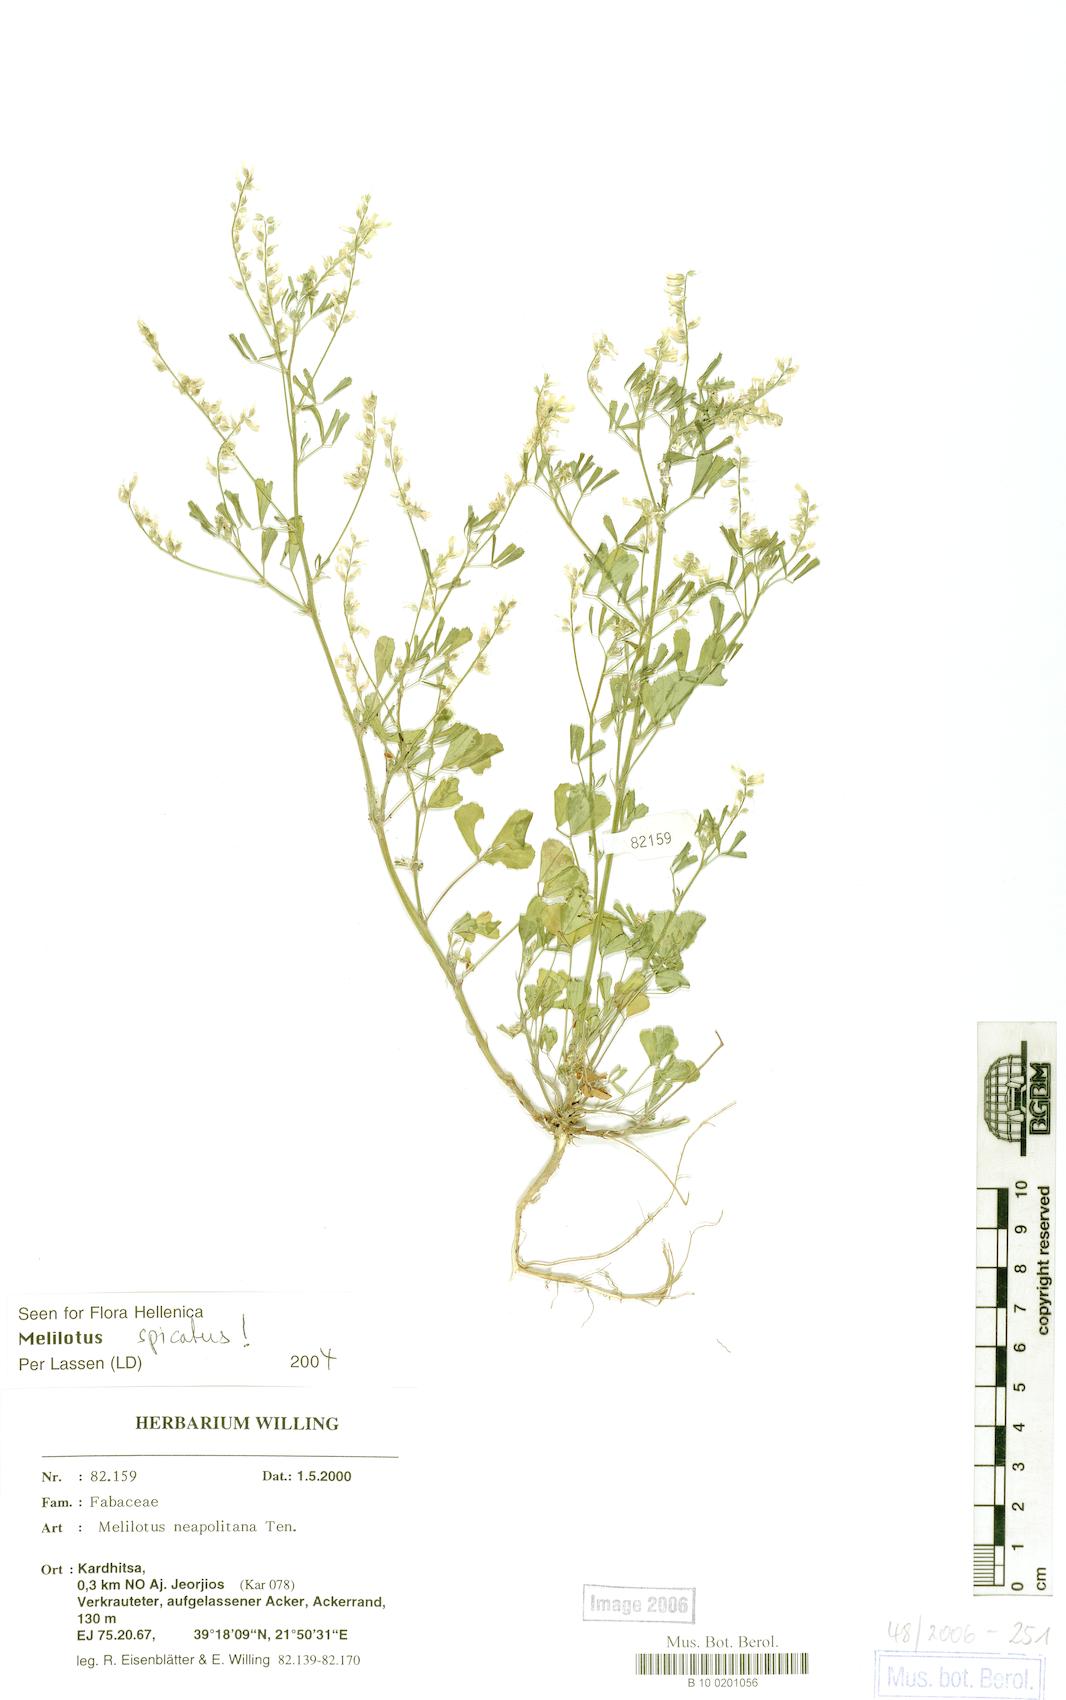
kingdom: Plantae
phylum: Tracheophyta
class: Magnoliopsida
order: Fabales
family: Fabaceae
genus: Melilotus
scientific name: Melilotus neapolitanus
